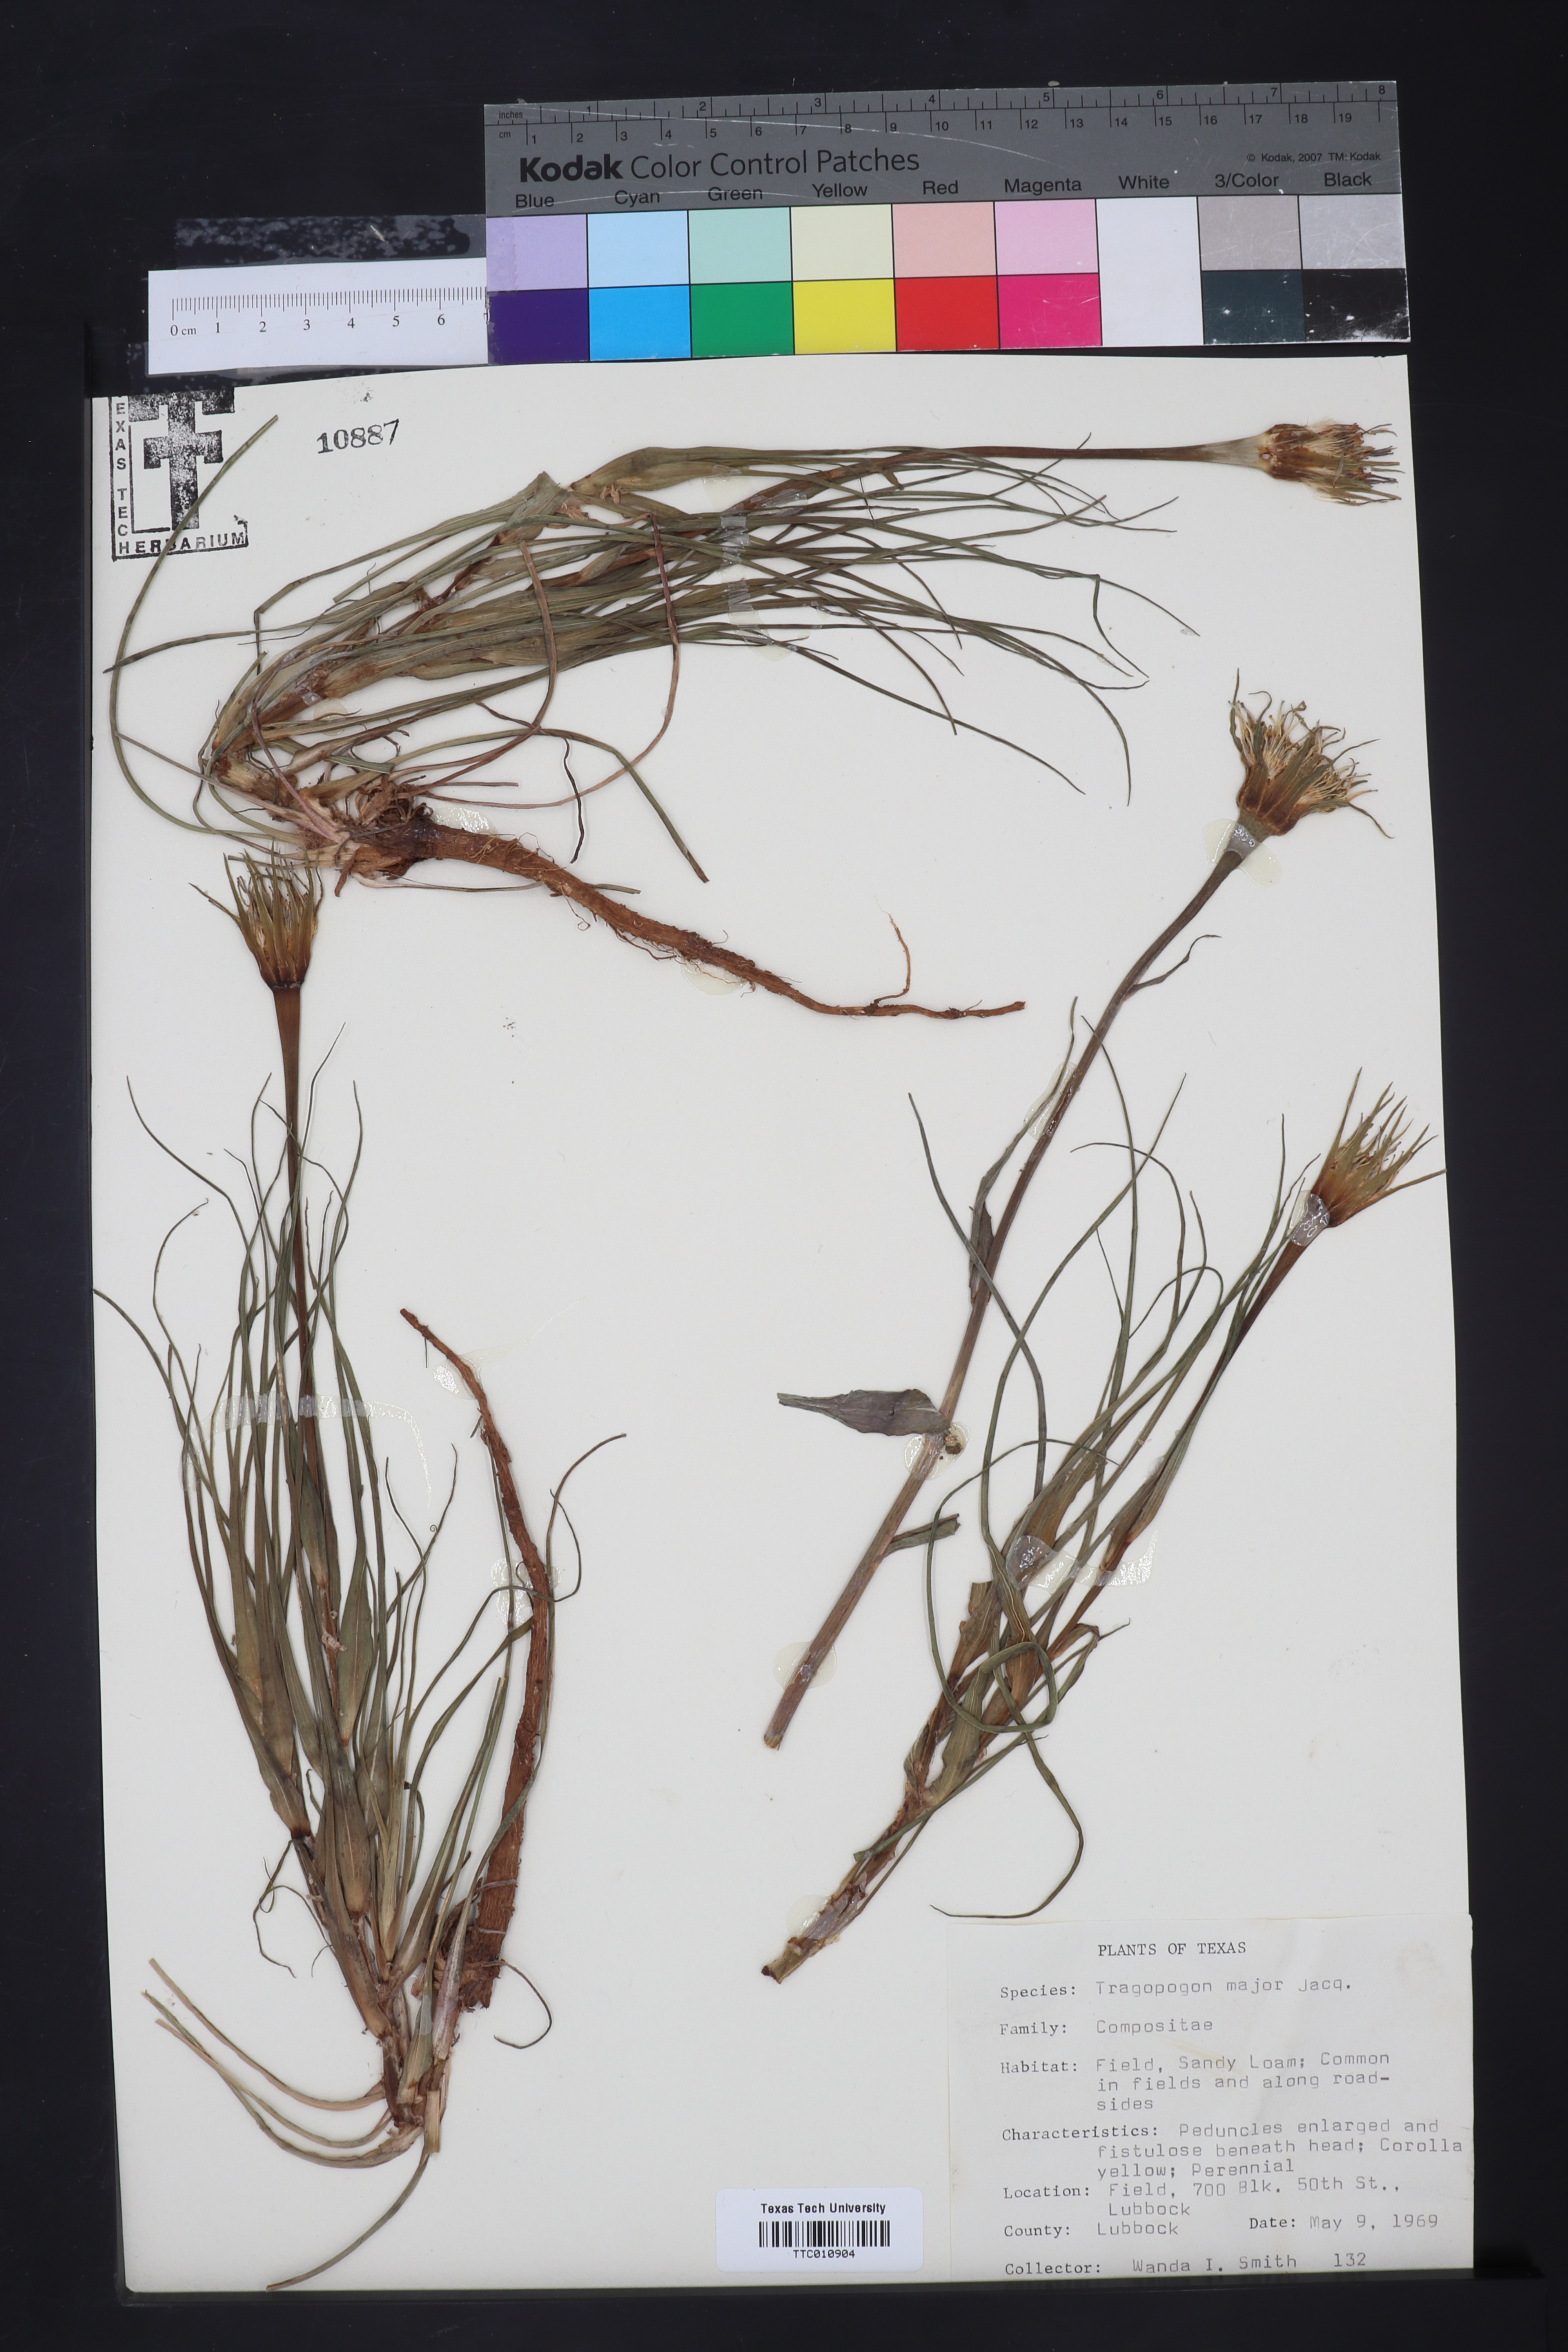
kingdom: Plantae
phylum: Tracheophyta
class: Magnoliopsida
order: Asterales
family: Asteraceae
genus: Tragopogon
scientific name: Tragopogon dubius
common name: Yellow salsify
